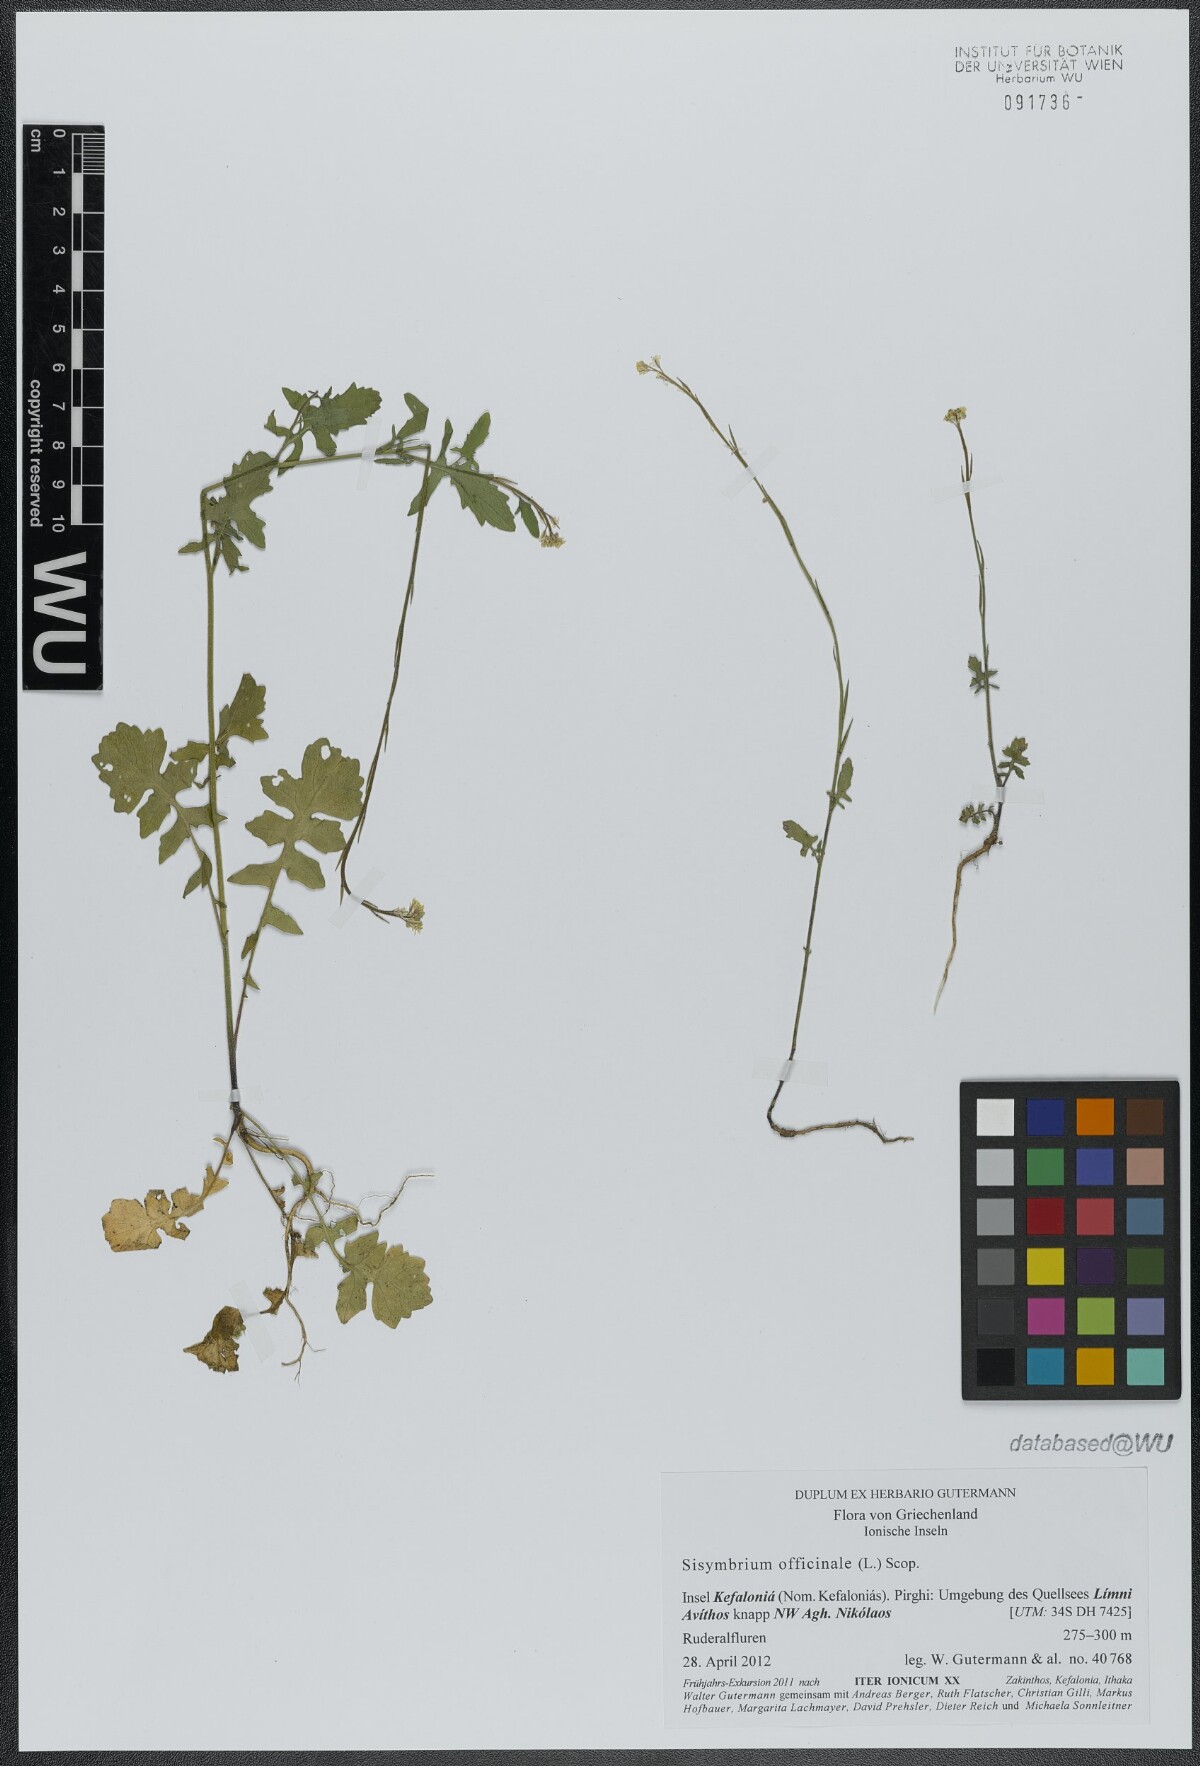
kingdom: Plantae
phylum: Tracheophyta
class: Magnoliopsida
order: Brassicales
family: Brassicaceae
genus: Sisymbrium
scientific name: Sisymbrium officinale
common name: Hedge mustard
